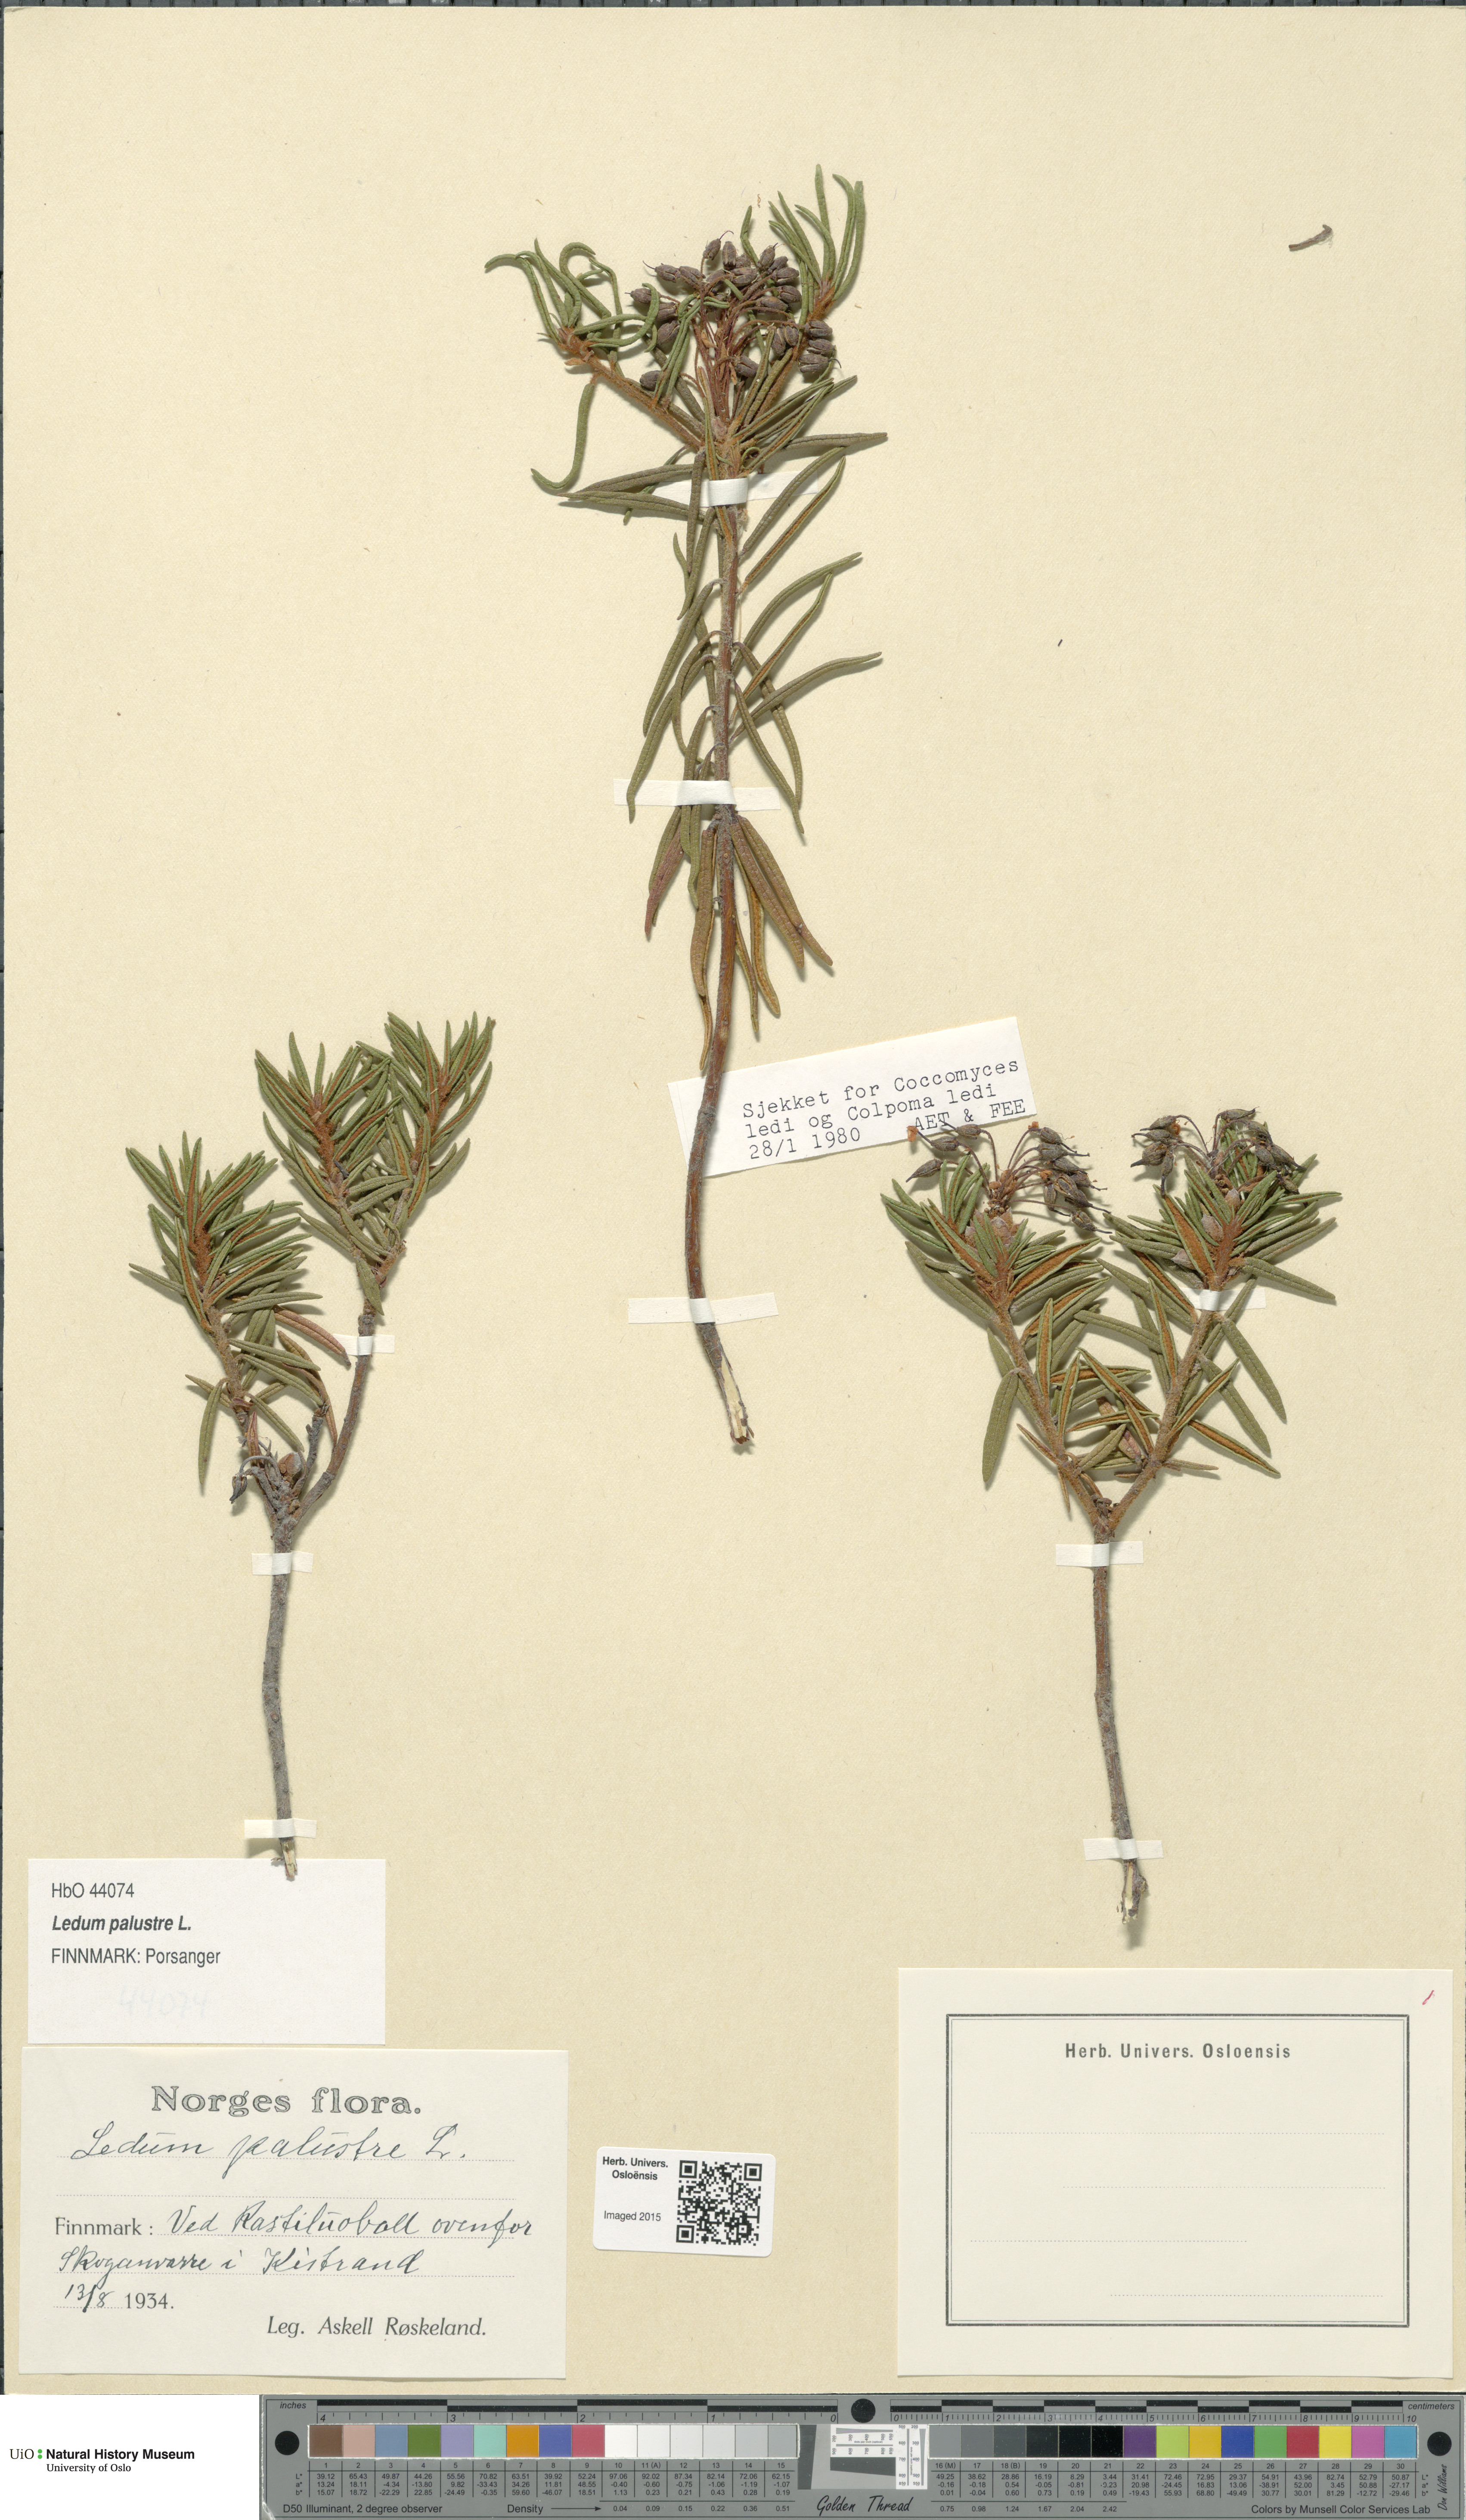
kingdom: Plantae
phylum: Tracheophyta
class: Magnoliopsida
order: Ericales
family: Ericaceae
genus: Rhododendron
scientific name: Rhododendron tomentosum
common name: Marsh labrador tea
